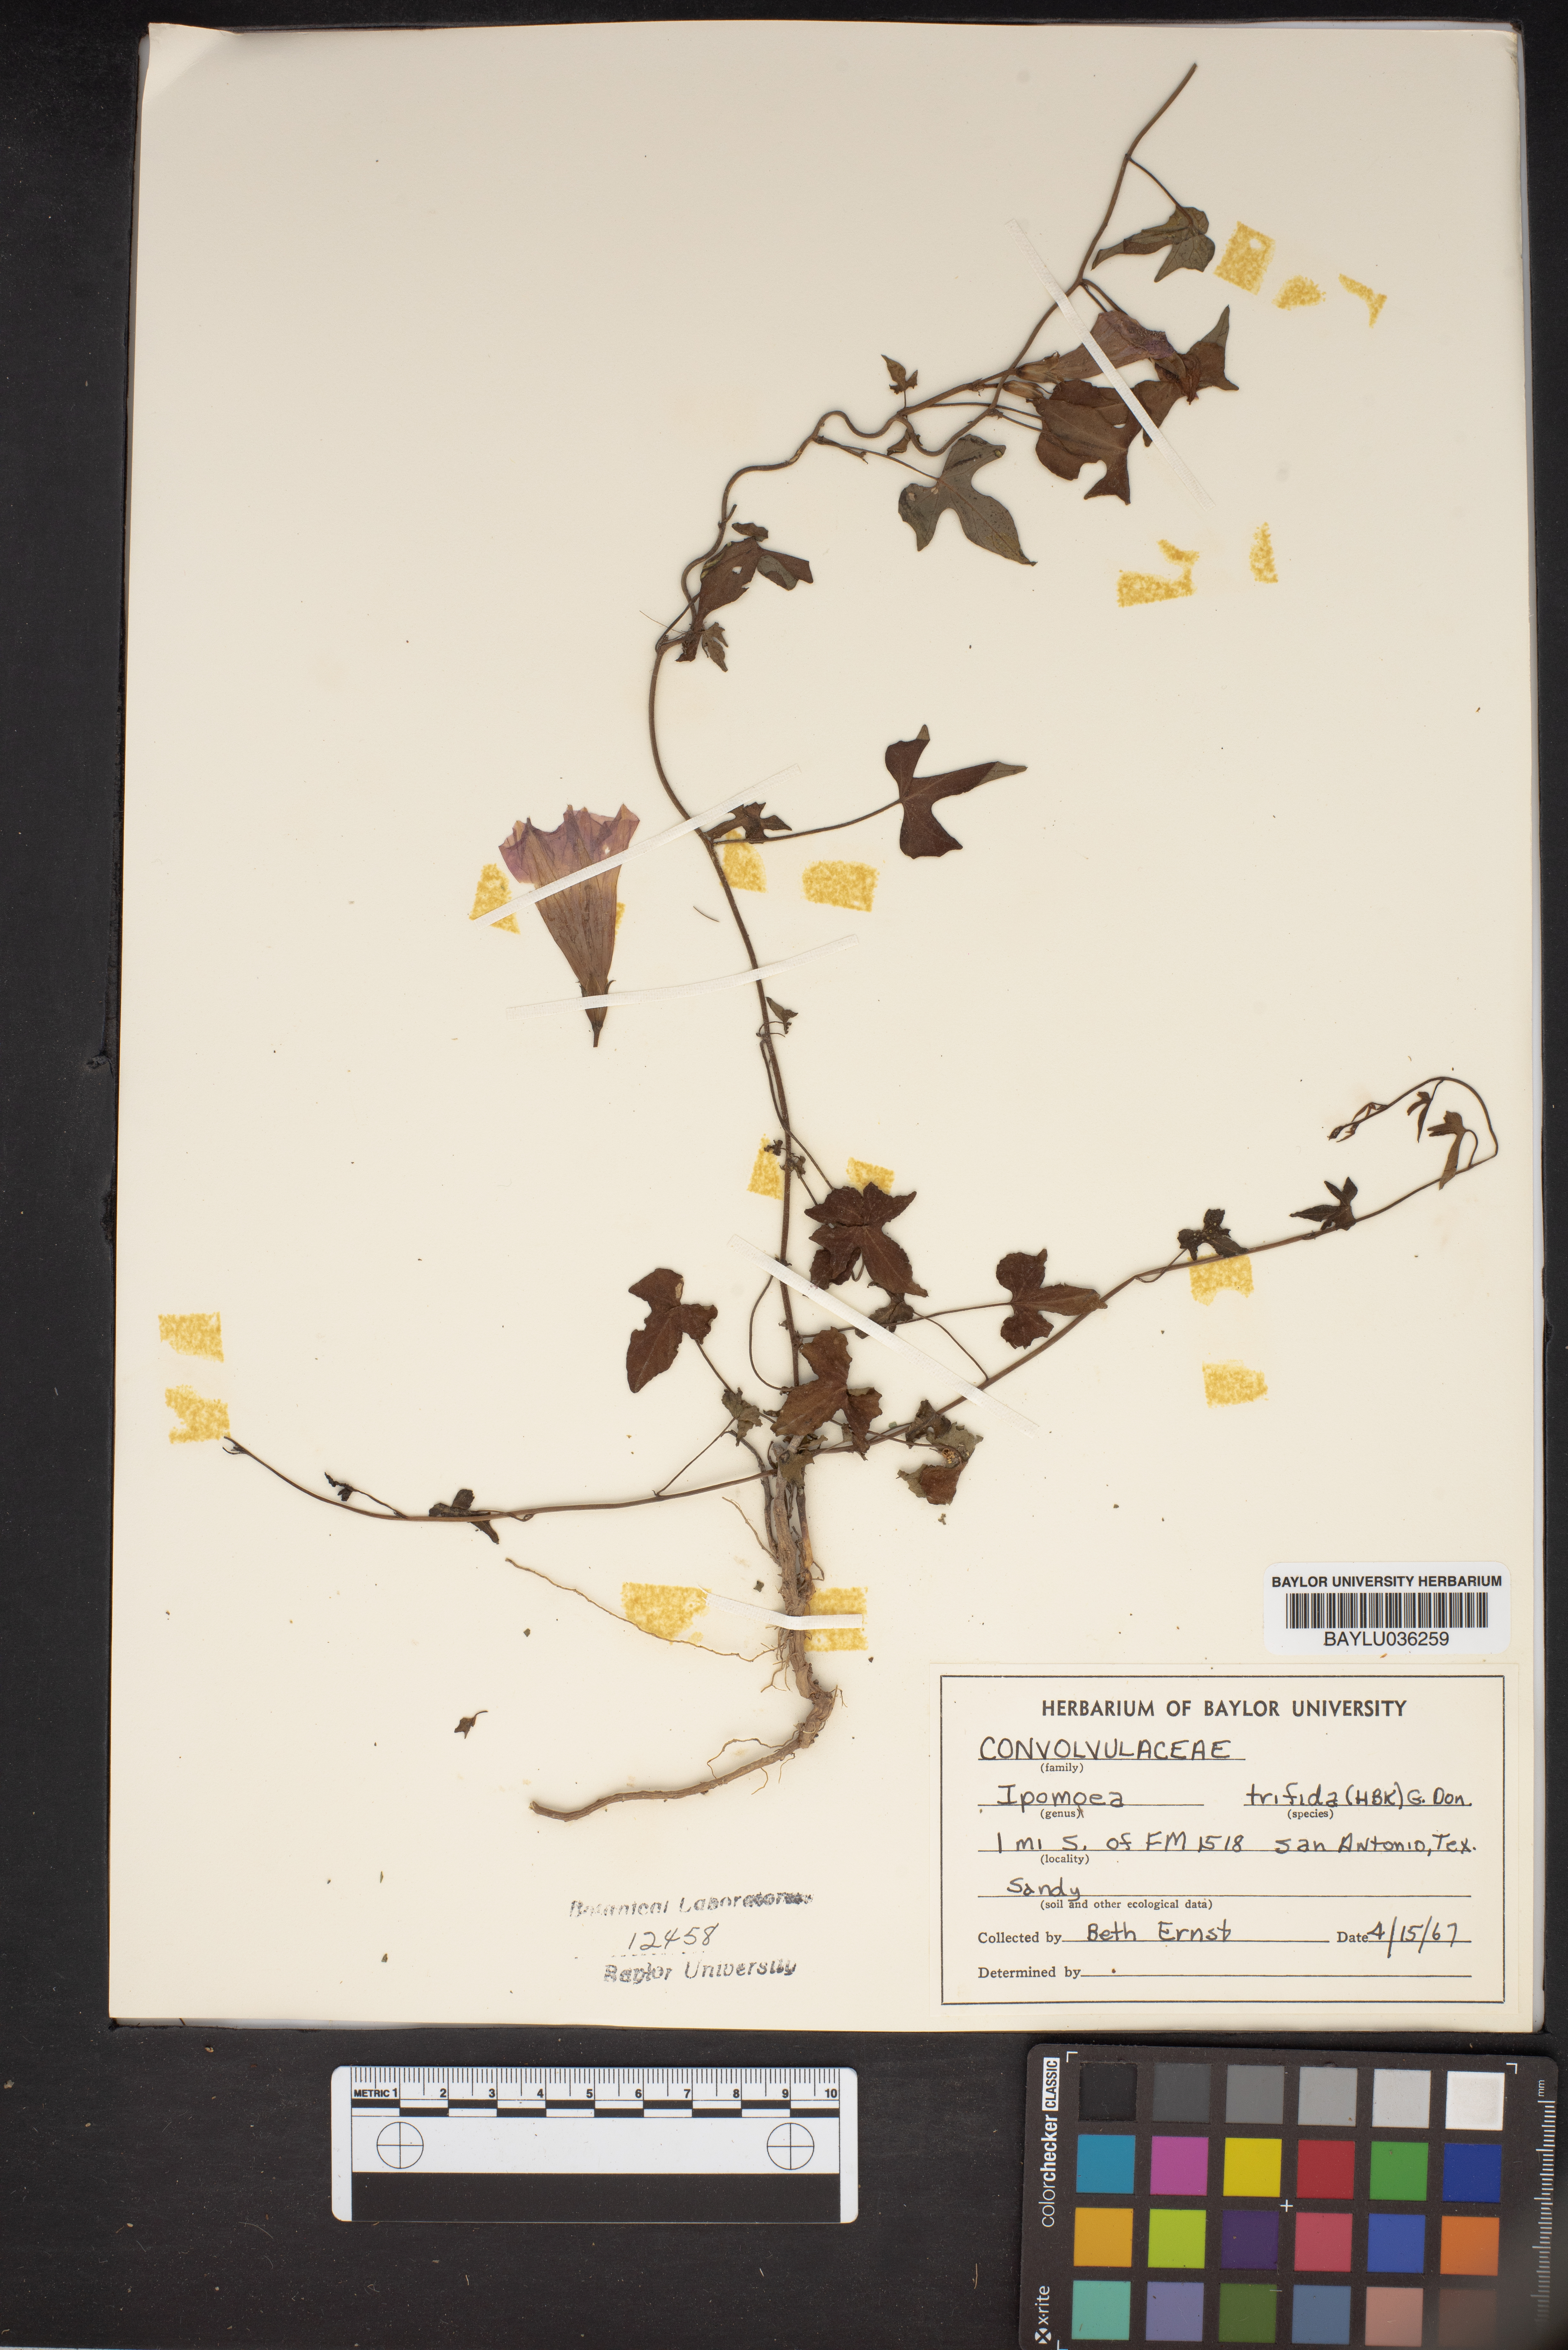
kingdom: Plantae
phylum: Tracheophyta
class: Magnoliopsida
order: Solanales
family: Convolvulaceae
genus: Ipomoea
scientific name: Ipomoea trifida
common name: Cotton morningglory
